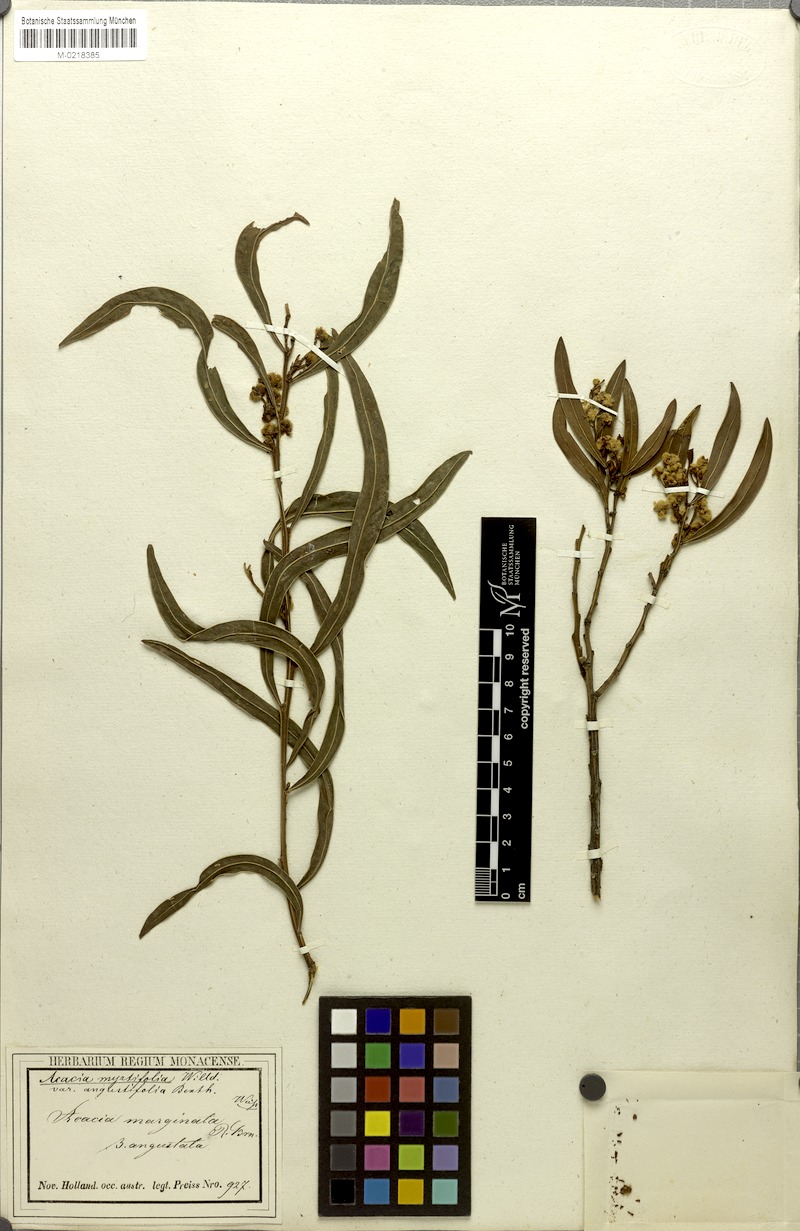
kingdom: Plantae
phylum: Tracheophyta
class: Magnoliopsida
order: Fabales
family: Fabaceae
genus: Acacia
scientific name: Acacia myrtifolia
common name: Myrtle wattle
